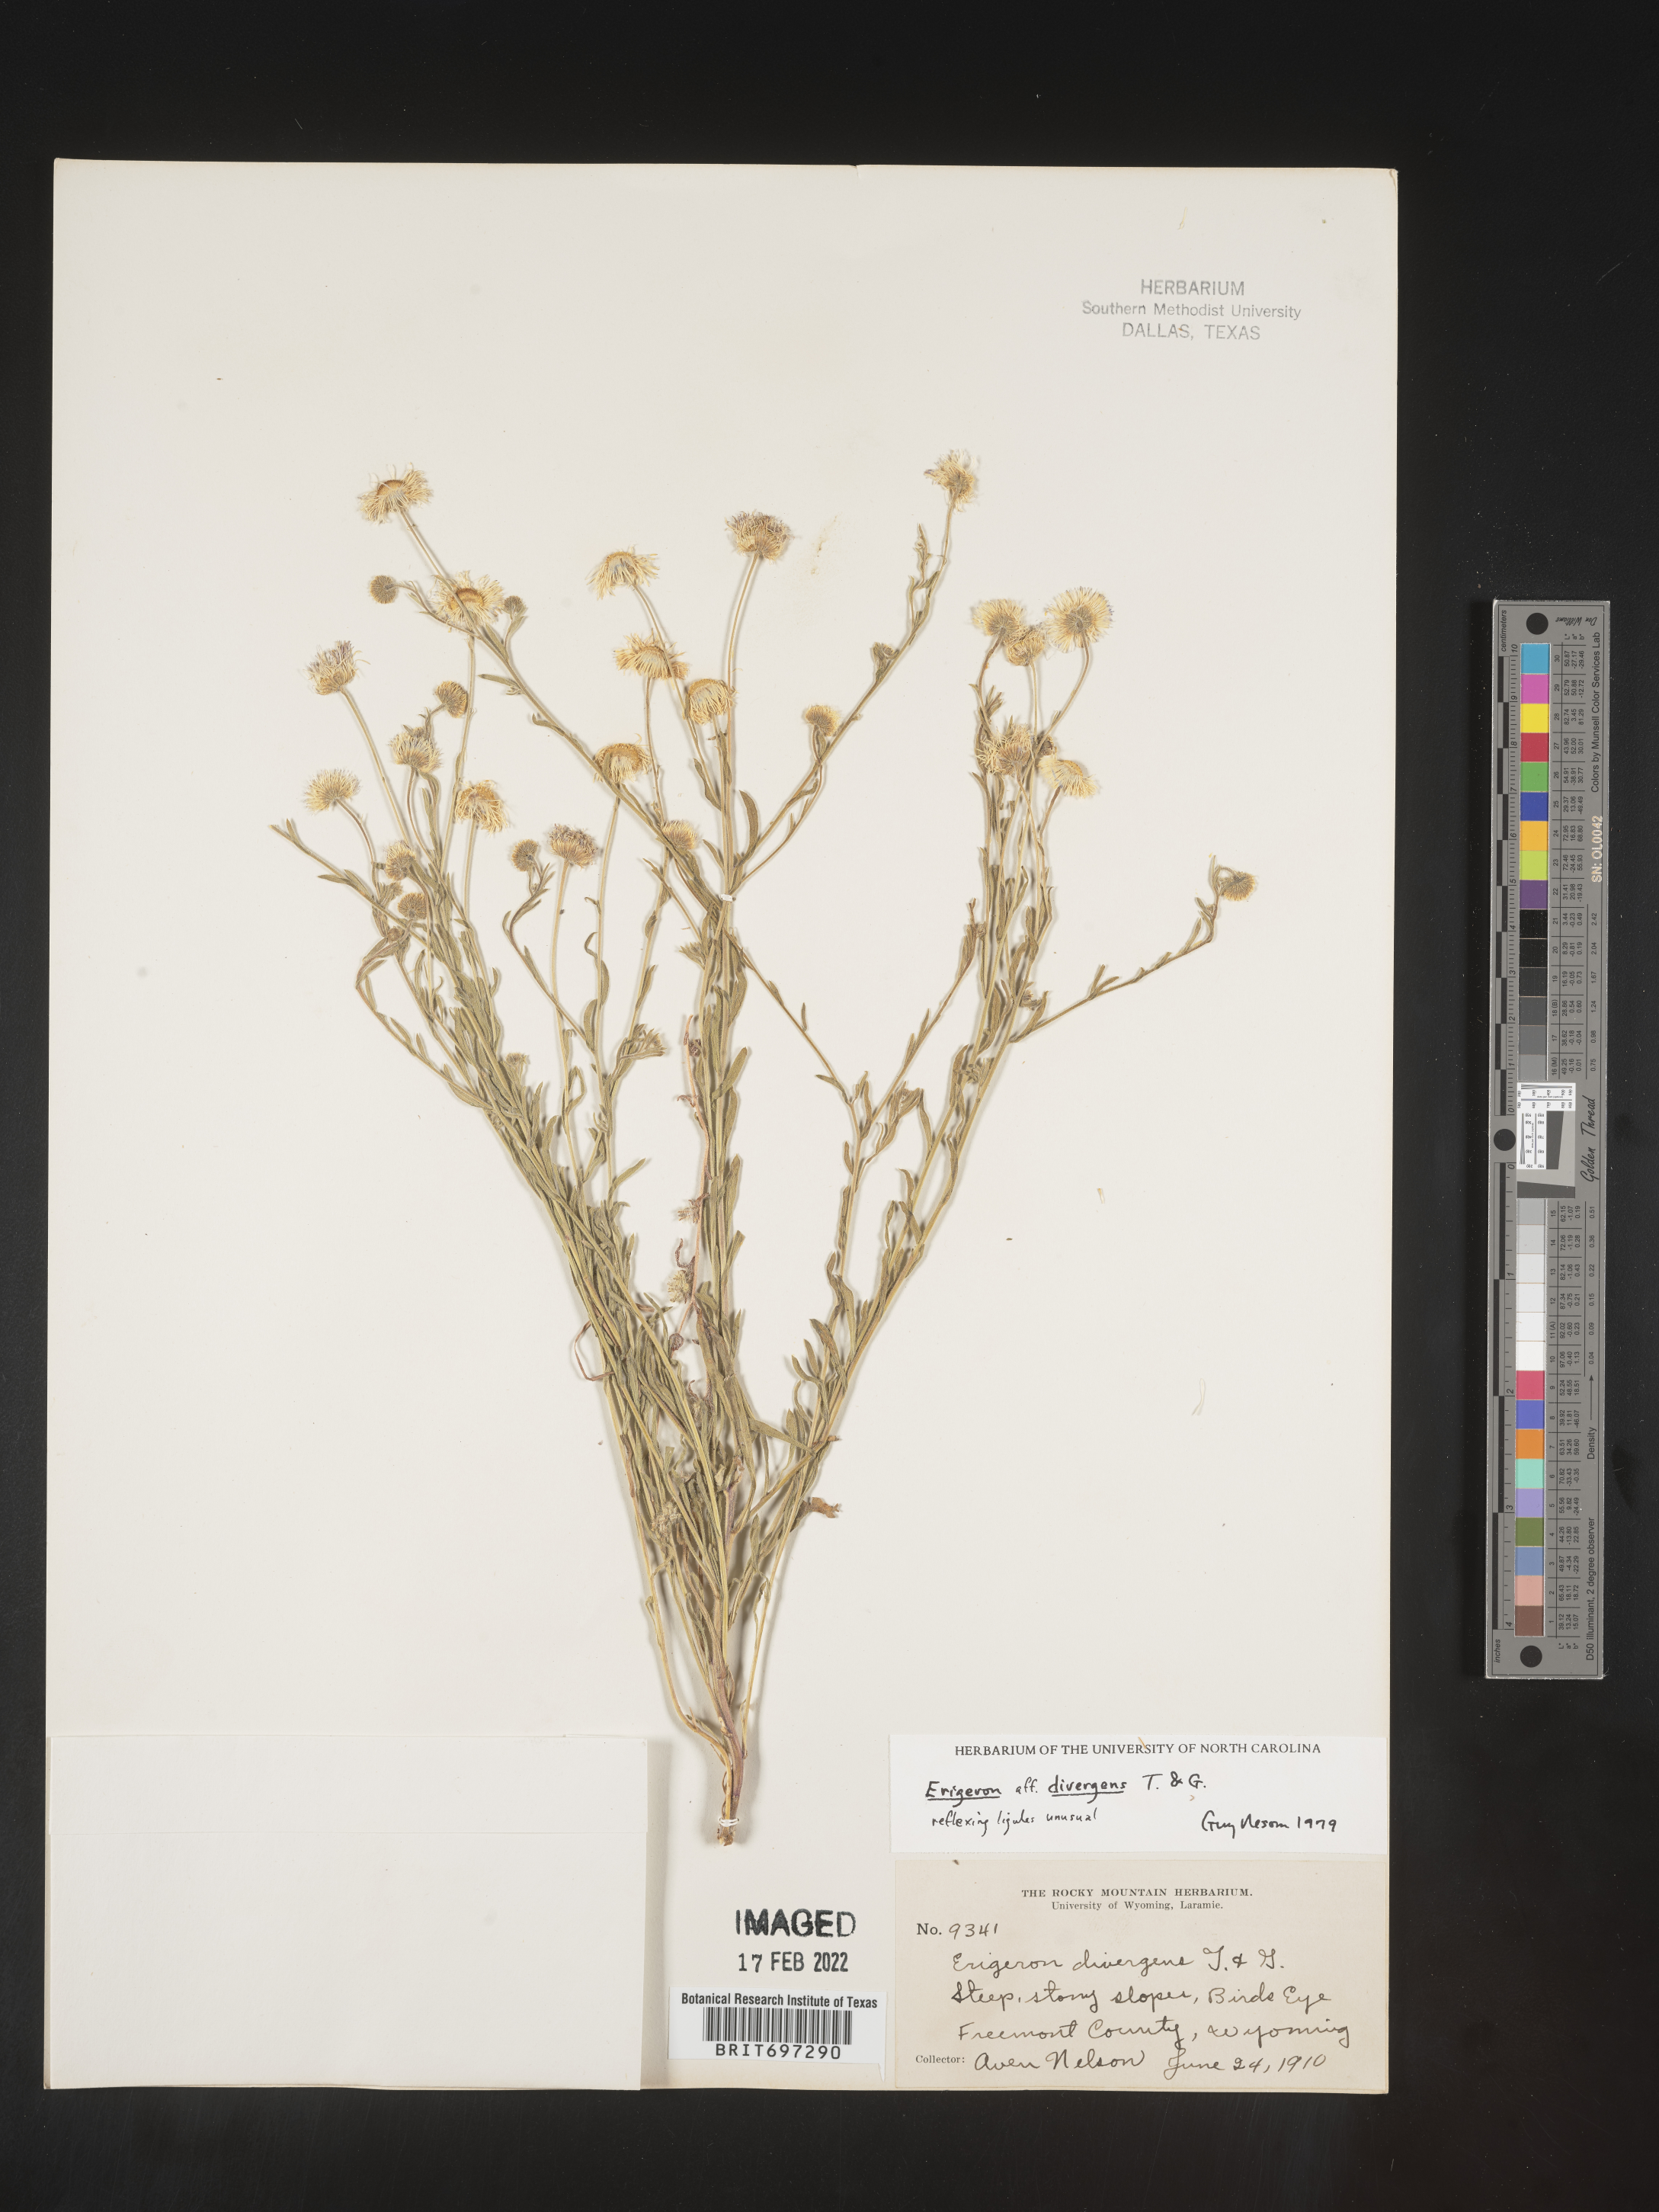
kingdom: Plantae
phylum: Tracheophyta
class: Magnoliopsida
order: Asterales
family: Asteraceae
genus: Erigeron
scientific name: Erigeron divergens
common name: Diffuse fleabane
